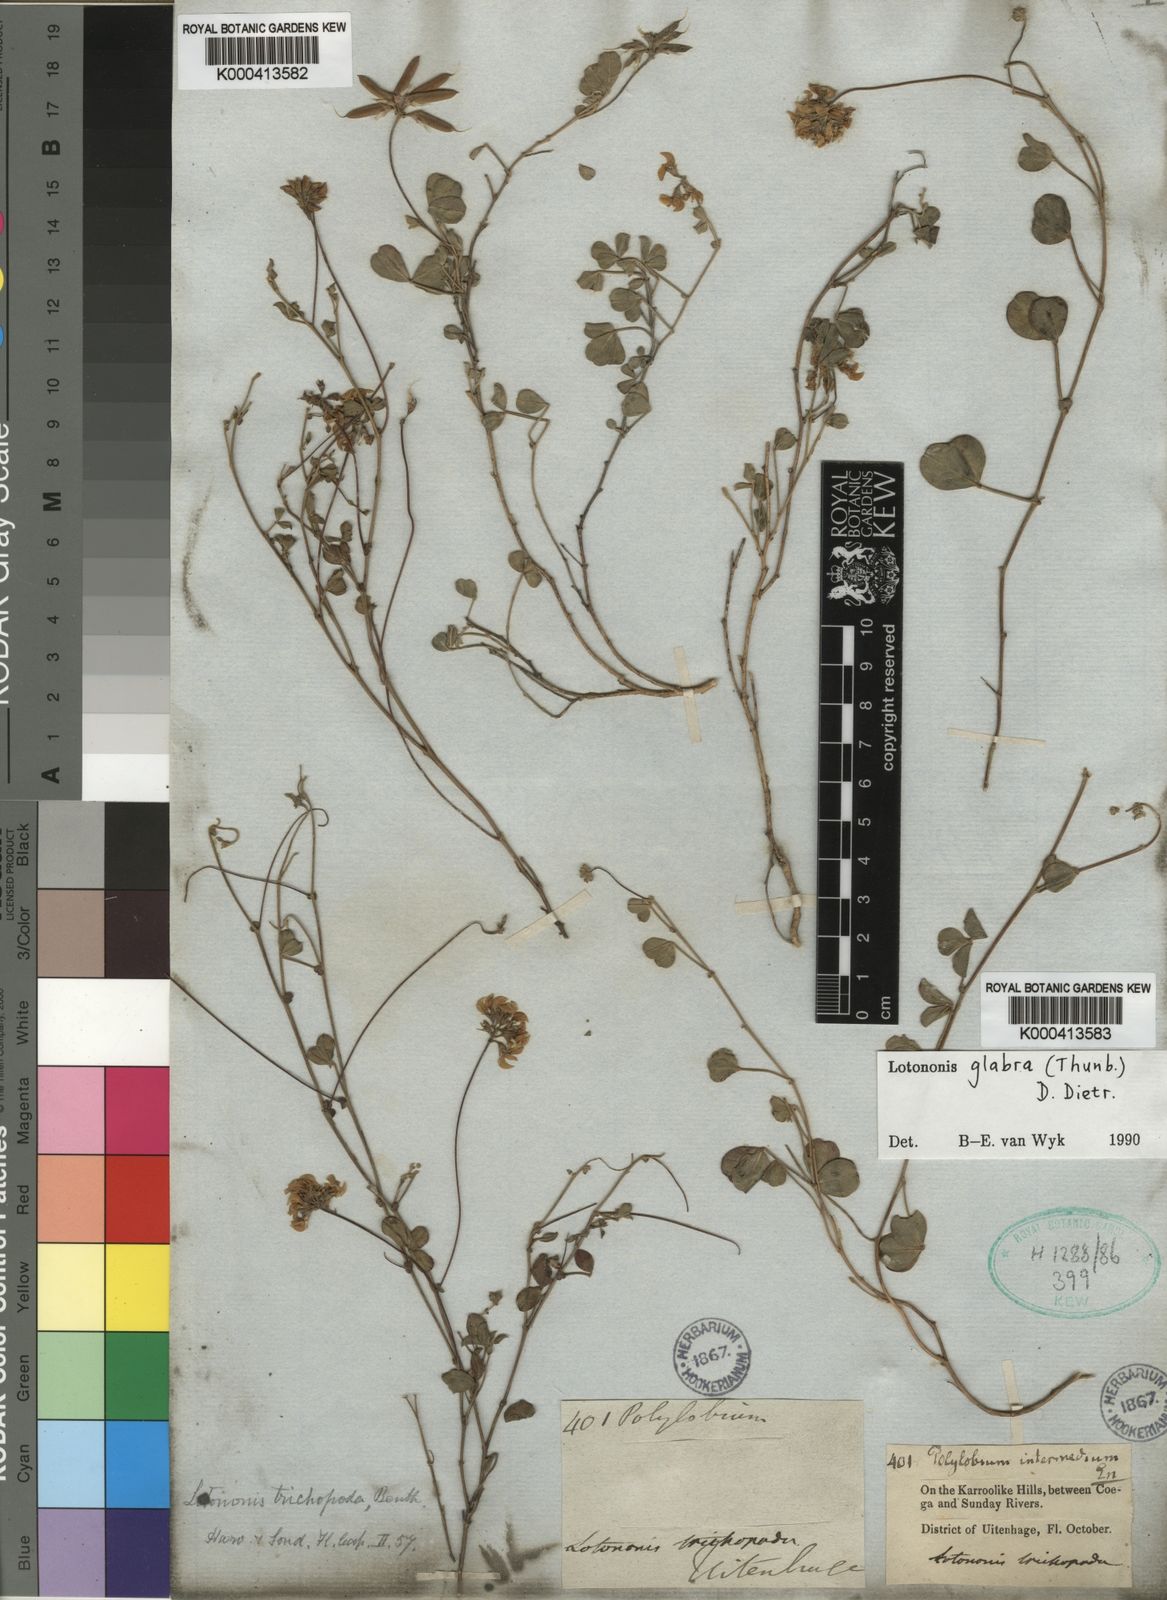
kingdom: Plantae
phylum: Tracheophyta
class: Magnoliopsida
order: Fabales
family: Fabaceae
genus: Lotononis
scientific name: Lotononis glabra
